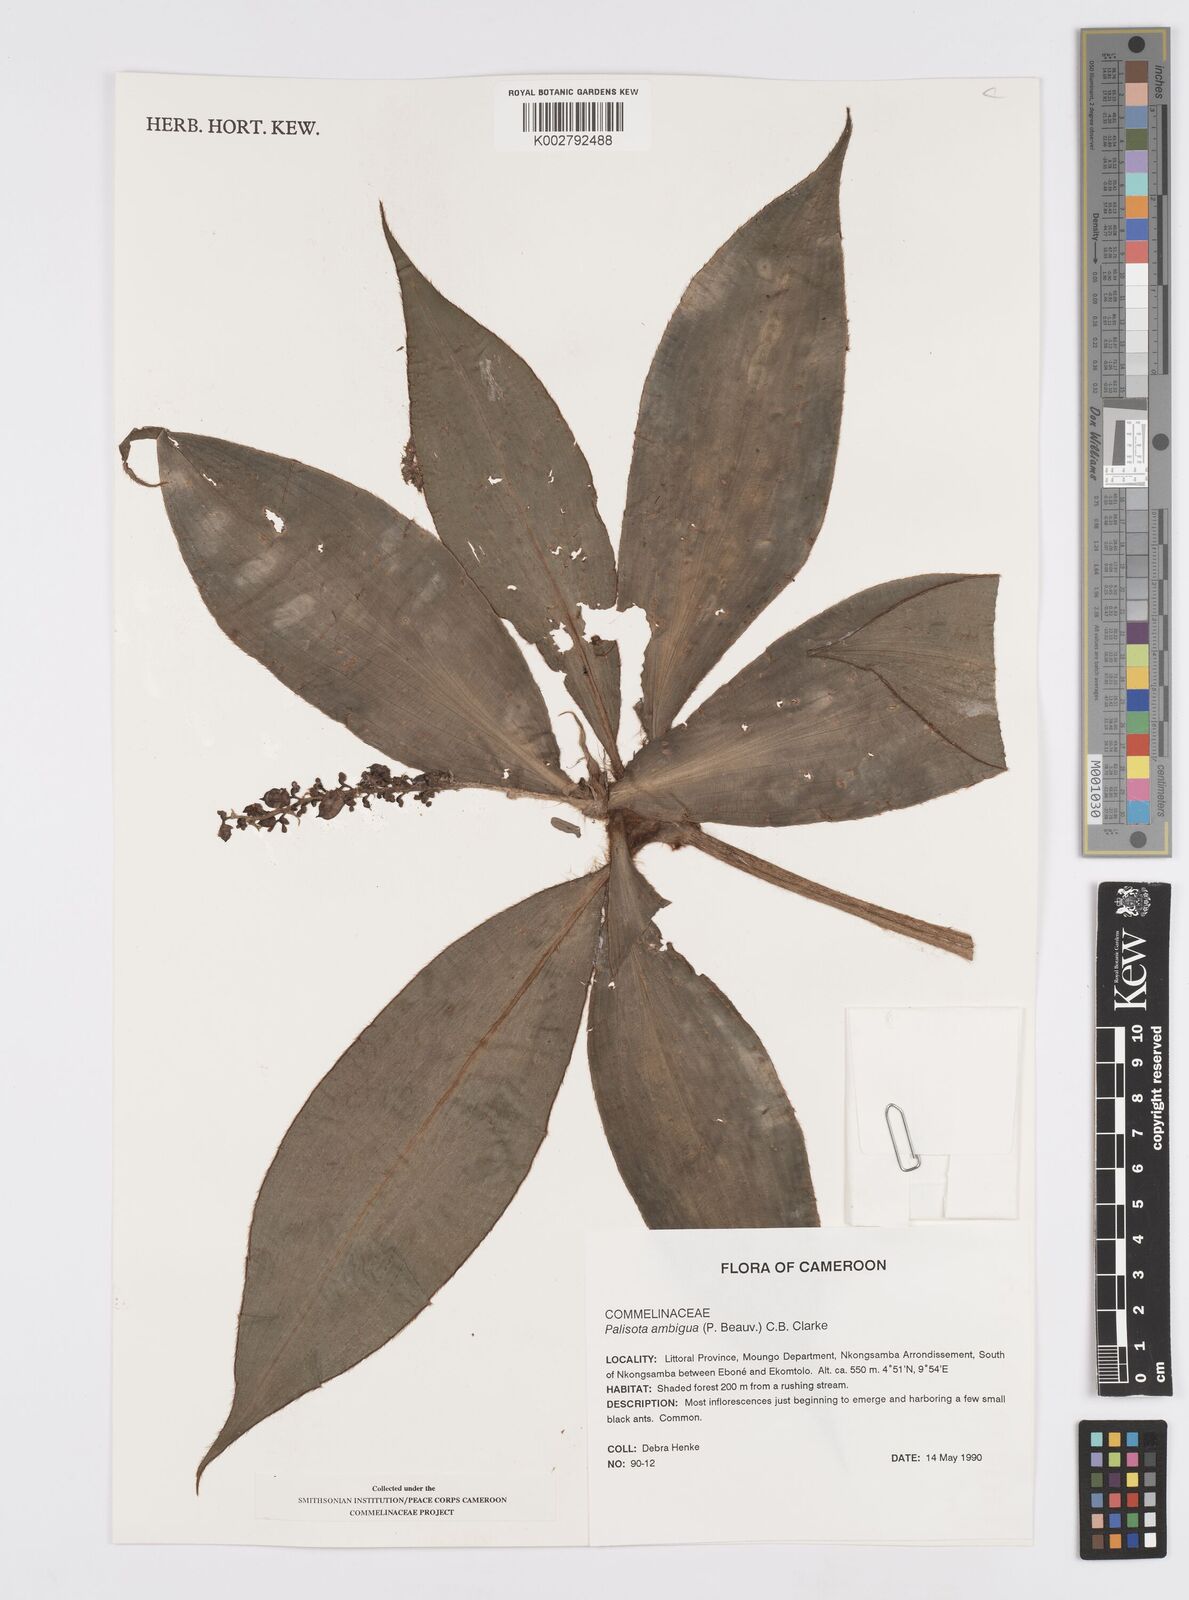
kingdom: Plantae
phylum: Tracheophyta
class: Liliopsida
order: Commelinales
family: Commelinaceae
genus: Palisota
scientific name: Palisota ambigua
